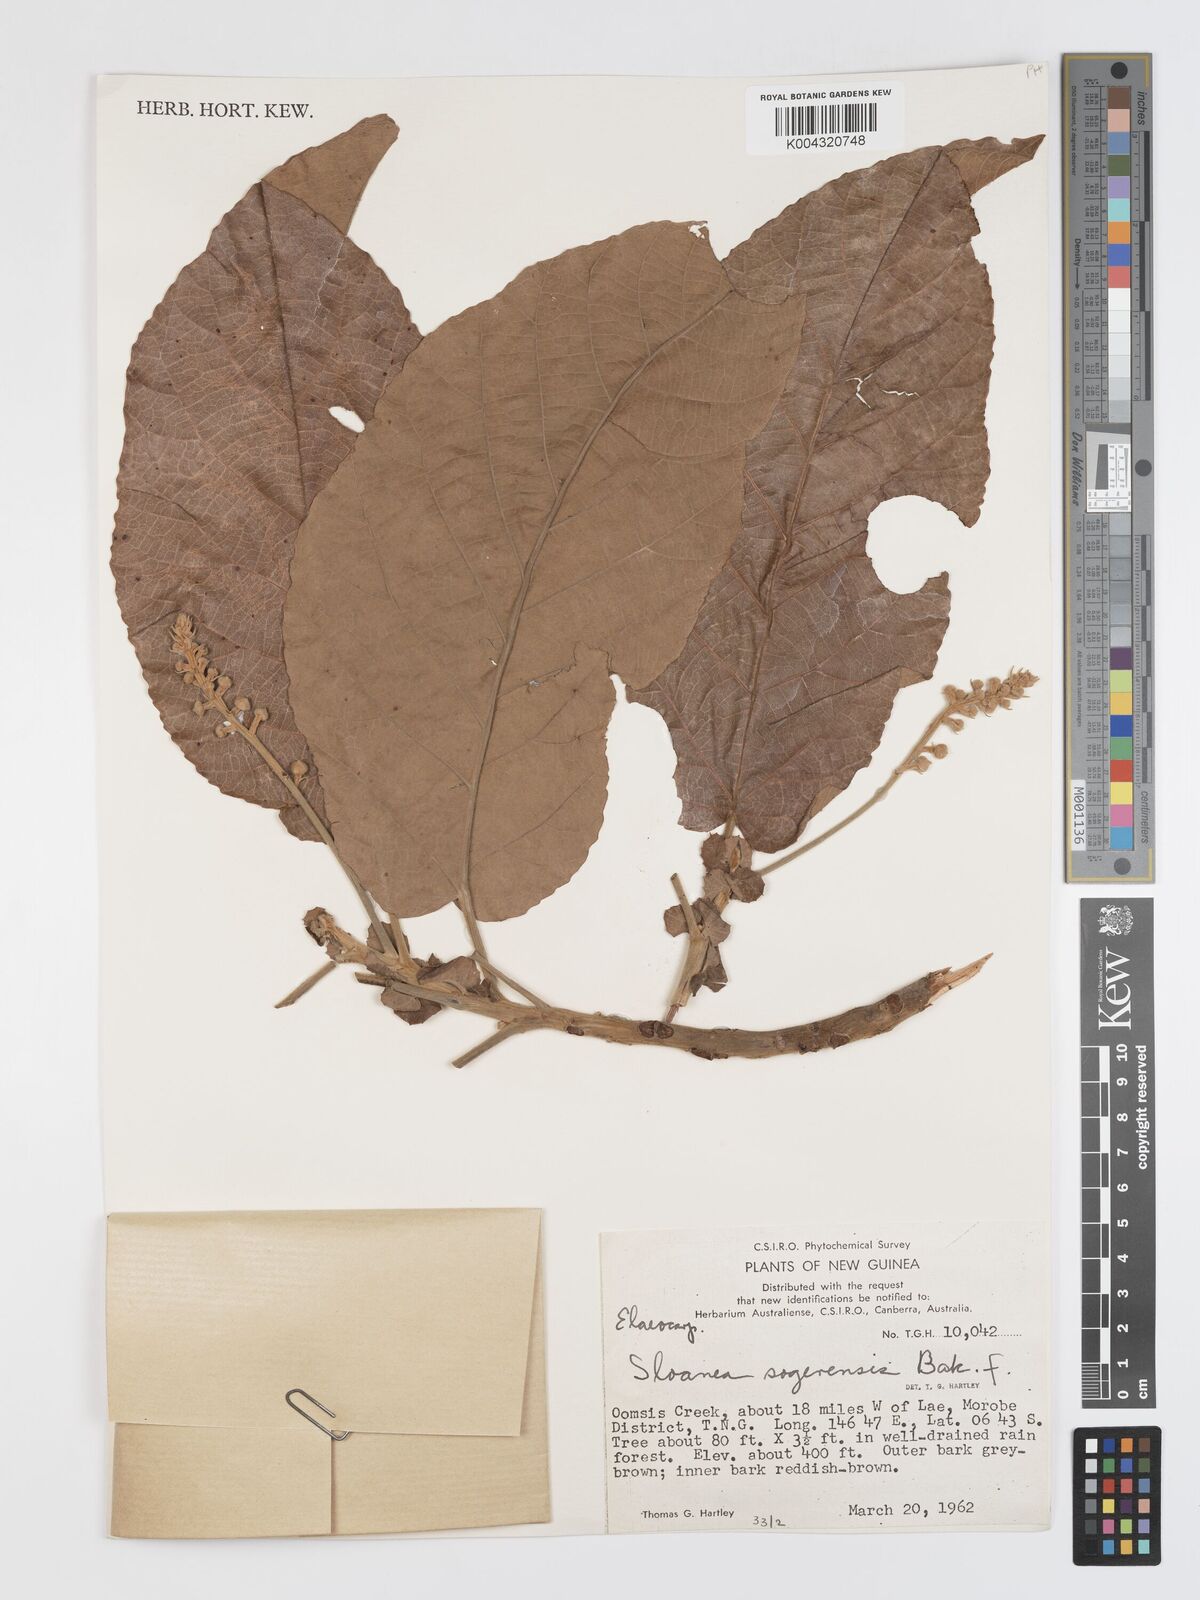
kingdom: Plantae
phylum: Tracheophyta
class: Magnoliopsida
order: Oxalidales
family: Elaeocarpaceae
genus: Sloanea
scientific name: Sloanea sogerensis
